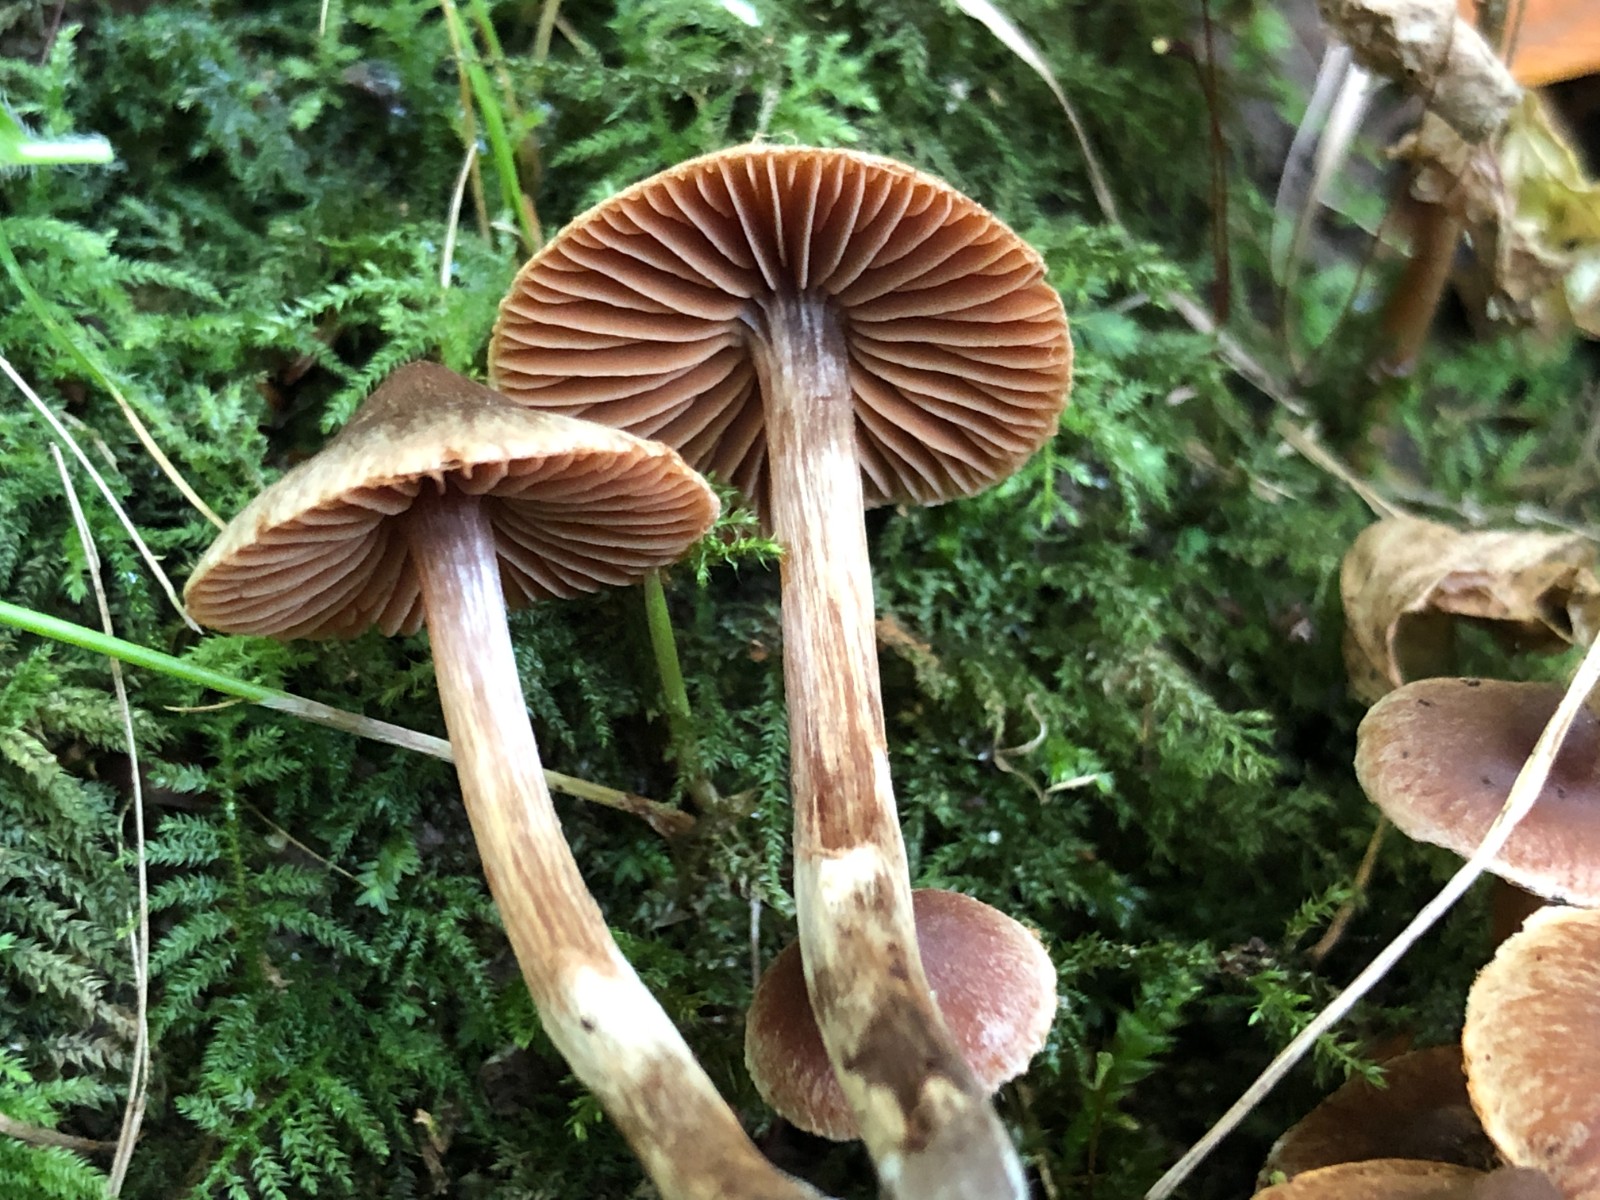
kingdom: Fungi
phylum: Basidiomycota
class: Agaricomycetes
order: Agaricales
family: Cortinariaceae
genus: Cortinarius
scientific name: Cortinarius
